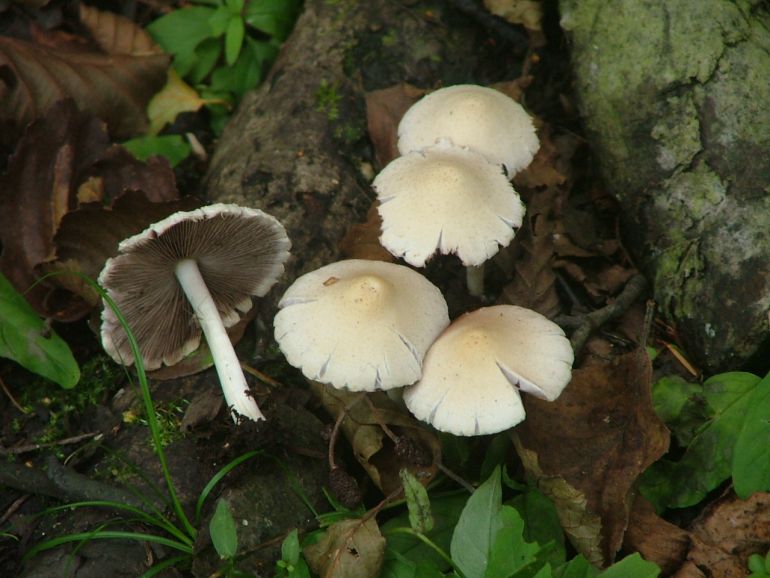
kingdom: Fungi
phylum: Basidiomycota
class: Agaricomycetes
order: Agaricales
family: Psathyrellaceae
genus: Candolleomyces
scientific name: Candolleomyces candolleanus
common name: Candolles mørkhat
